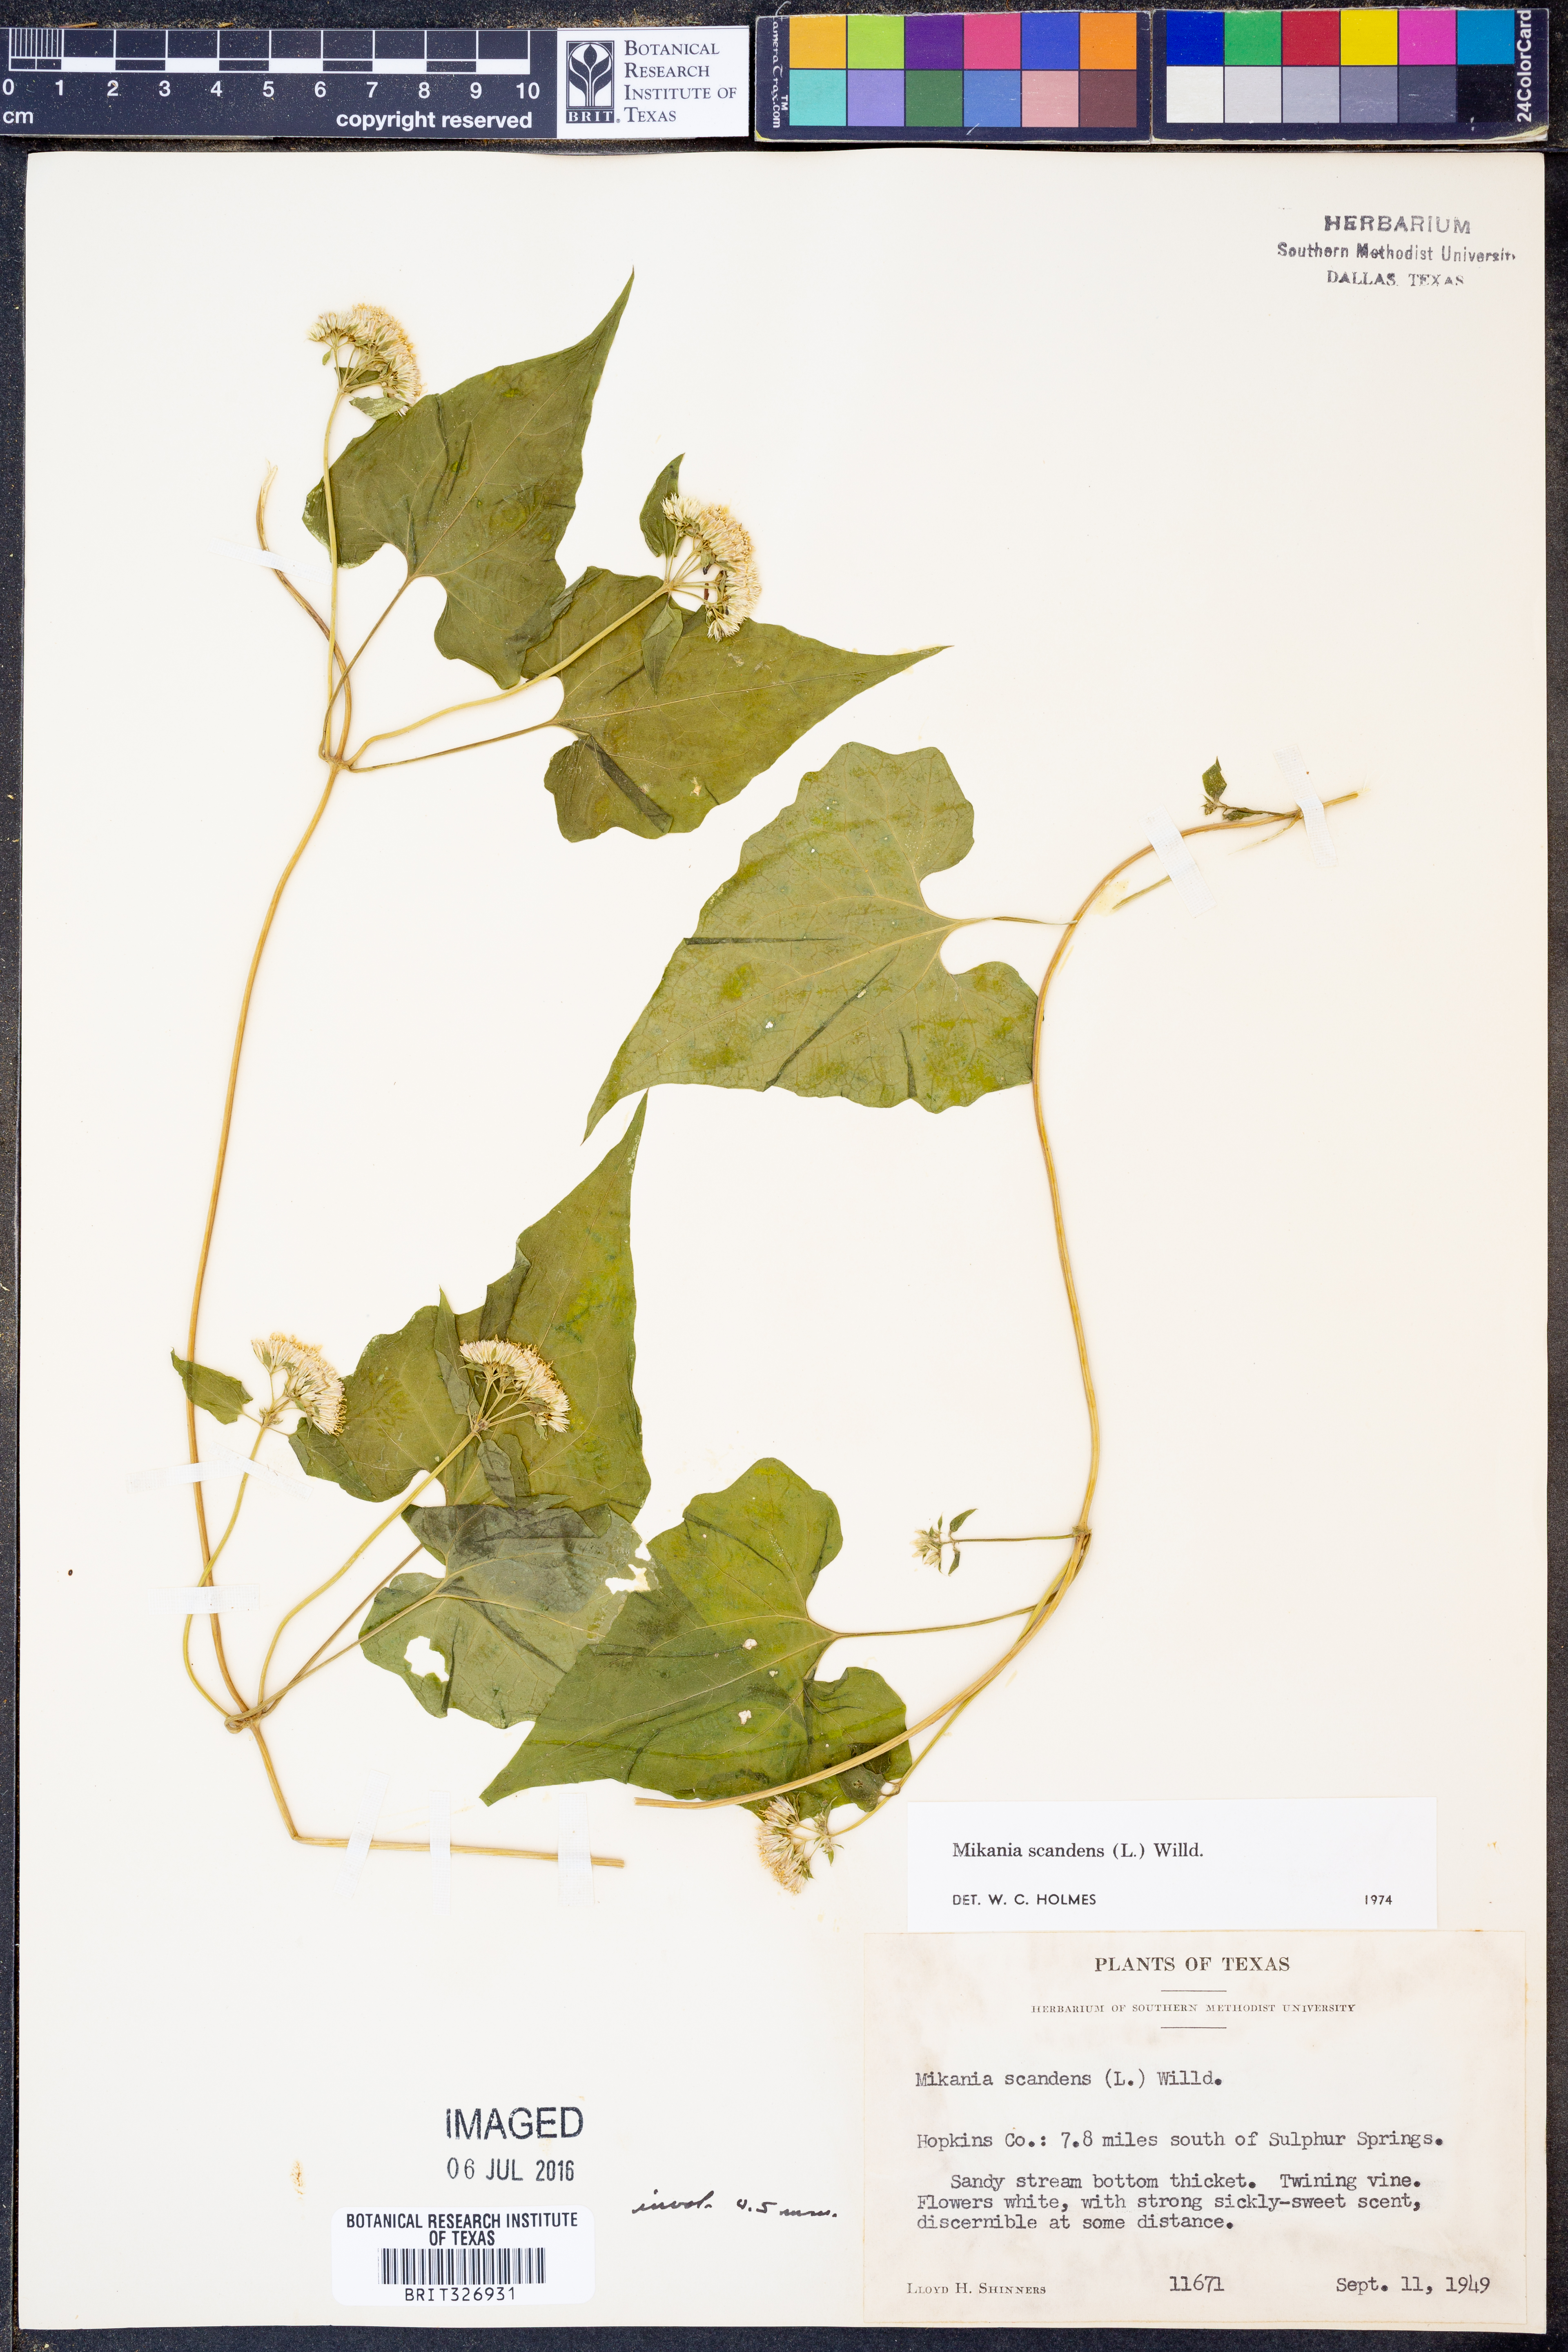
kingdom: Plantae
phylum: Tracheophyta
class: Magnoliopsida
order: Asterales
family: Asteraceae
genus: Mikania
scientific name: Mikania scandens
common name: Climbing hempvine
